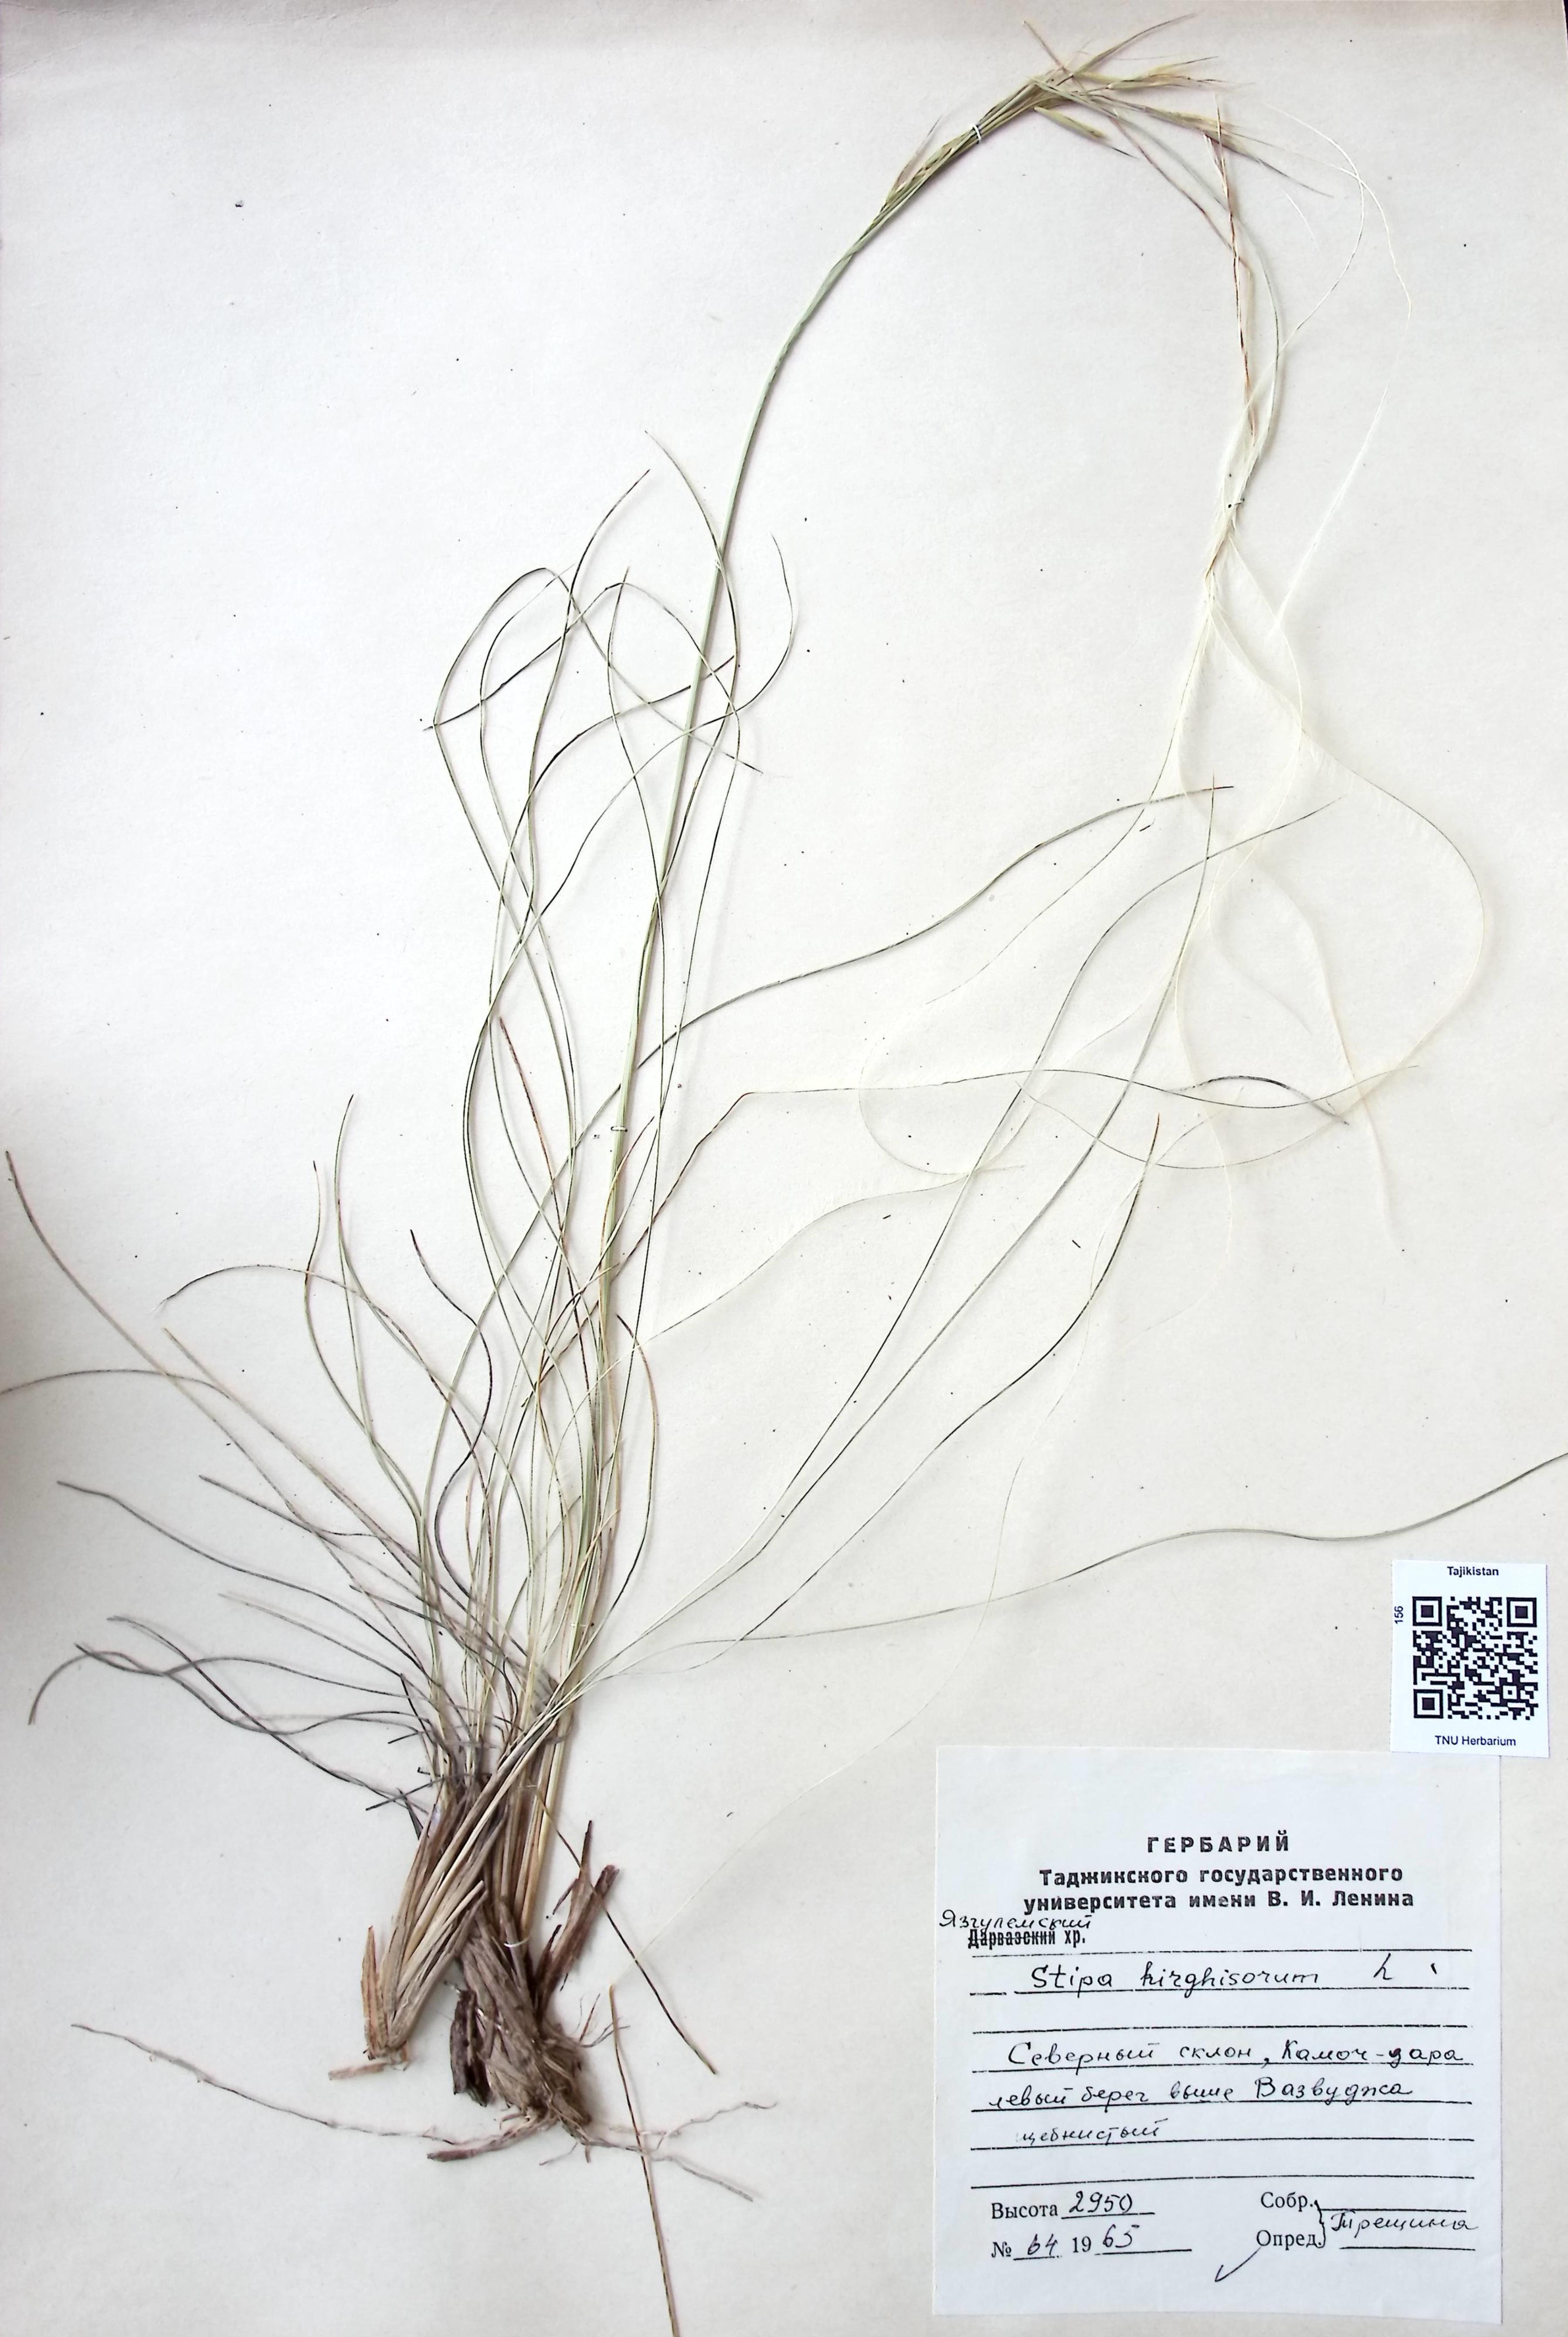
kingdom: Plantae
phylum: Tracheophyta
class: Liliopsida
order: Poales
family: Poaceae
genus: Stipa
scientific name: Stipa kirghisorum
